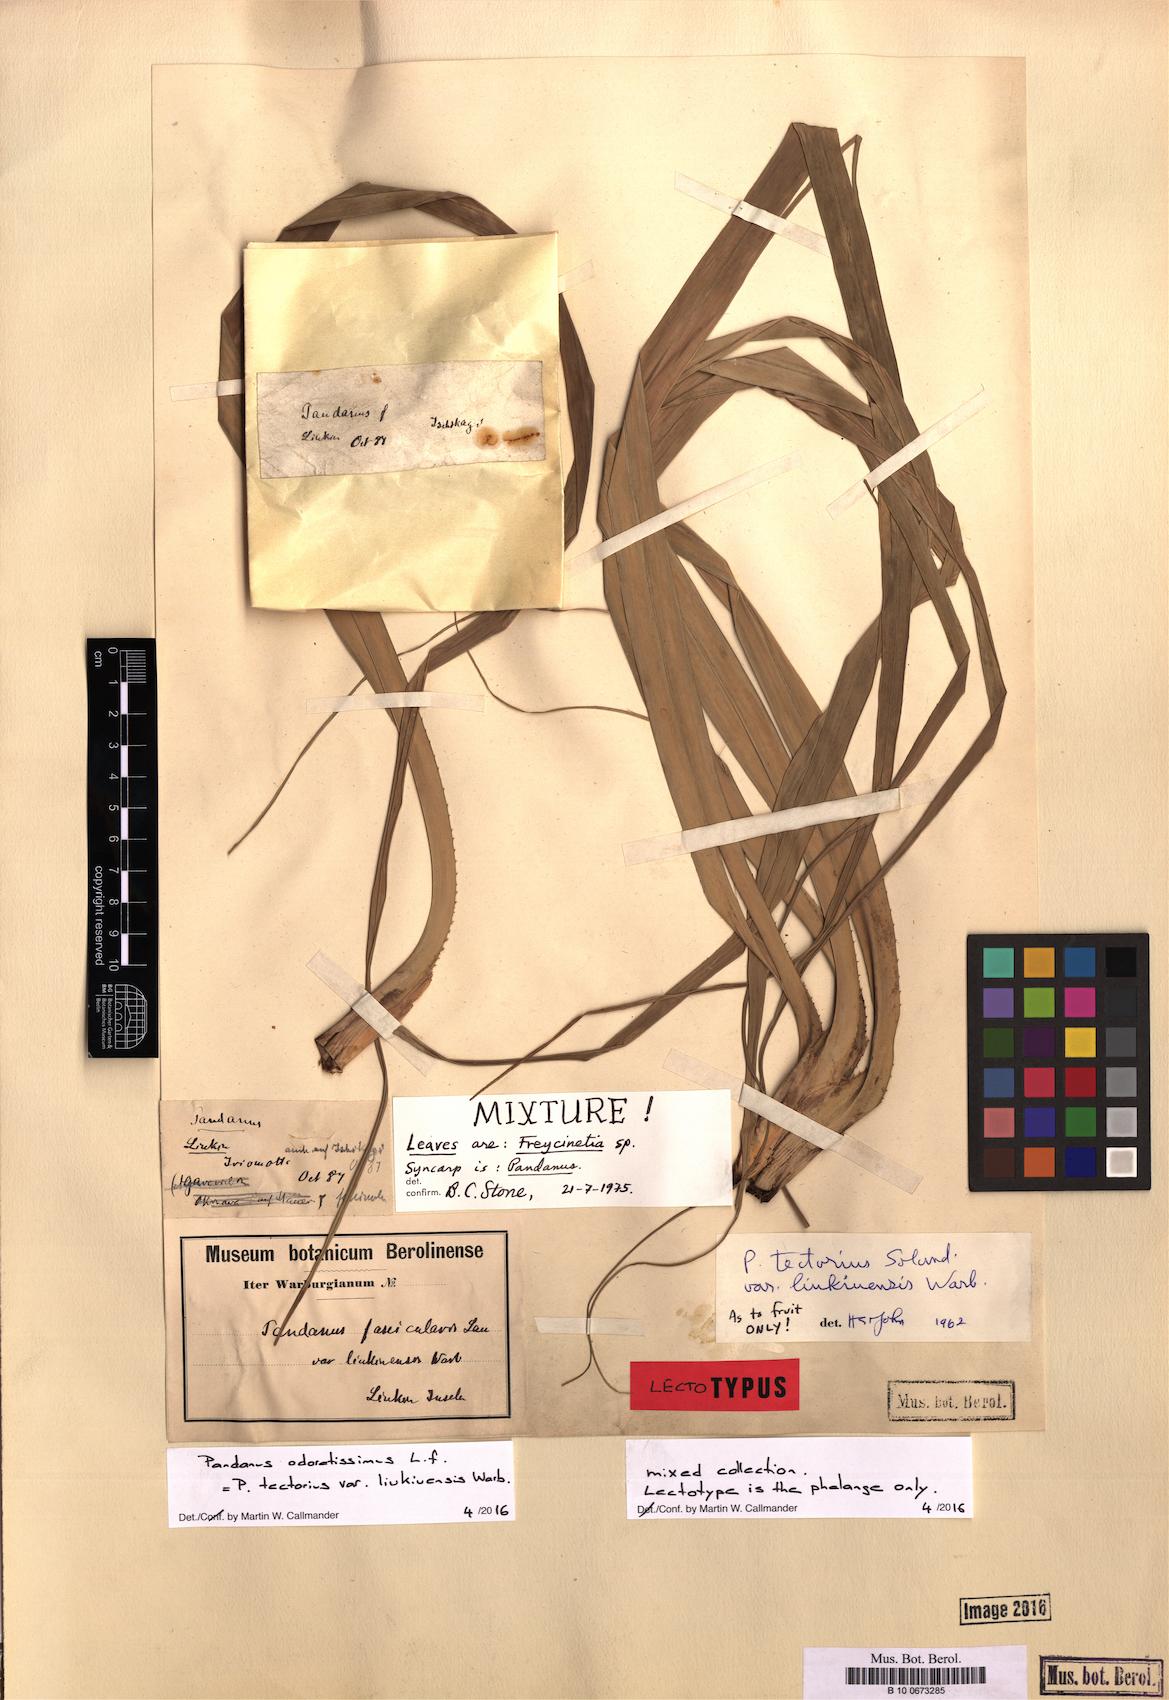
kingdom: Plantae
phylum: Tracheophyta
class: Liliopsida
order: Pandanales
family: Pandanaceae
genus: Pandanus
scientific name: Pandanus odorifer
